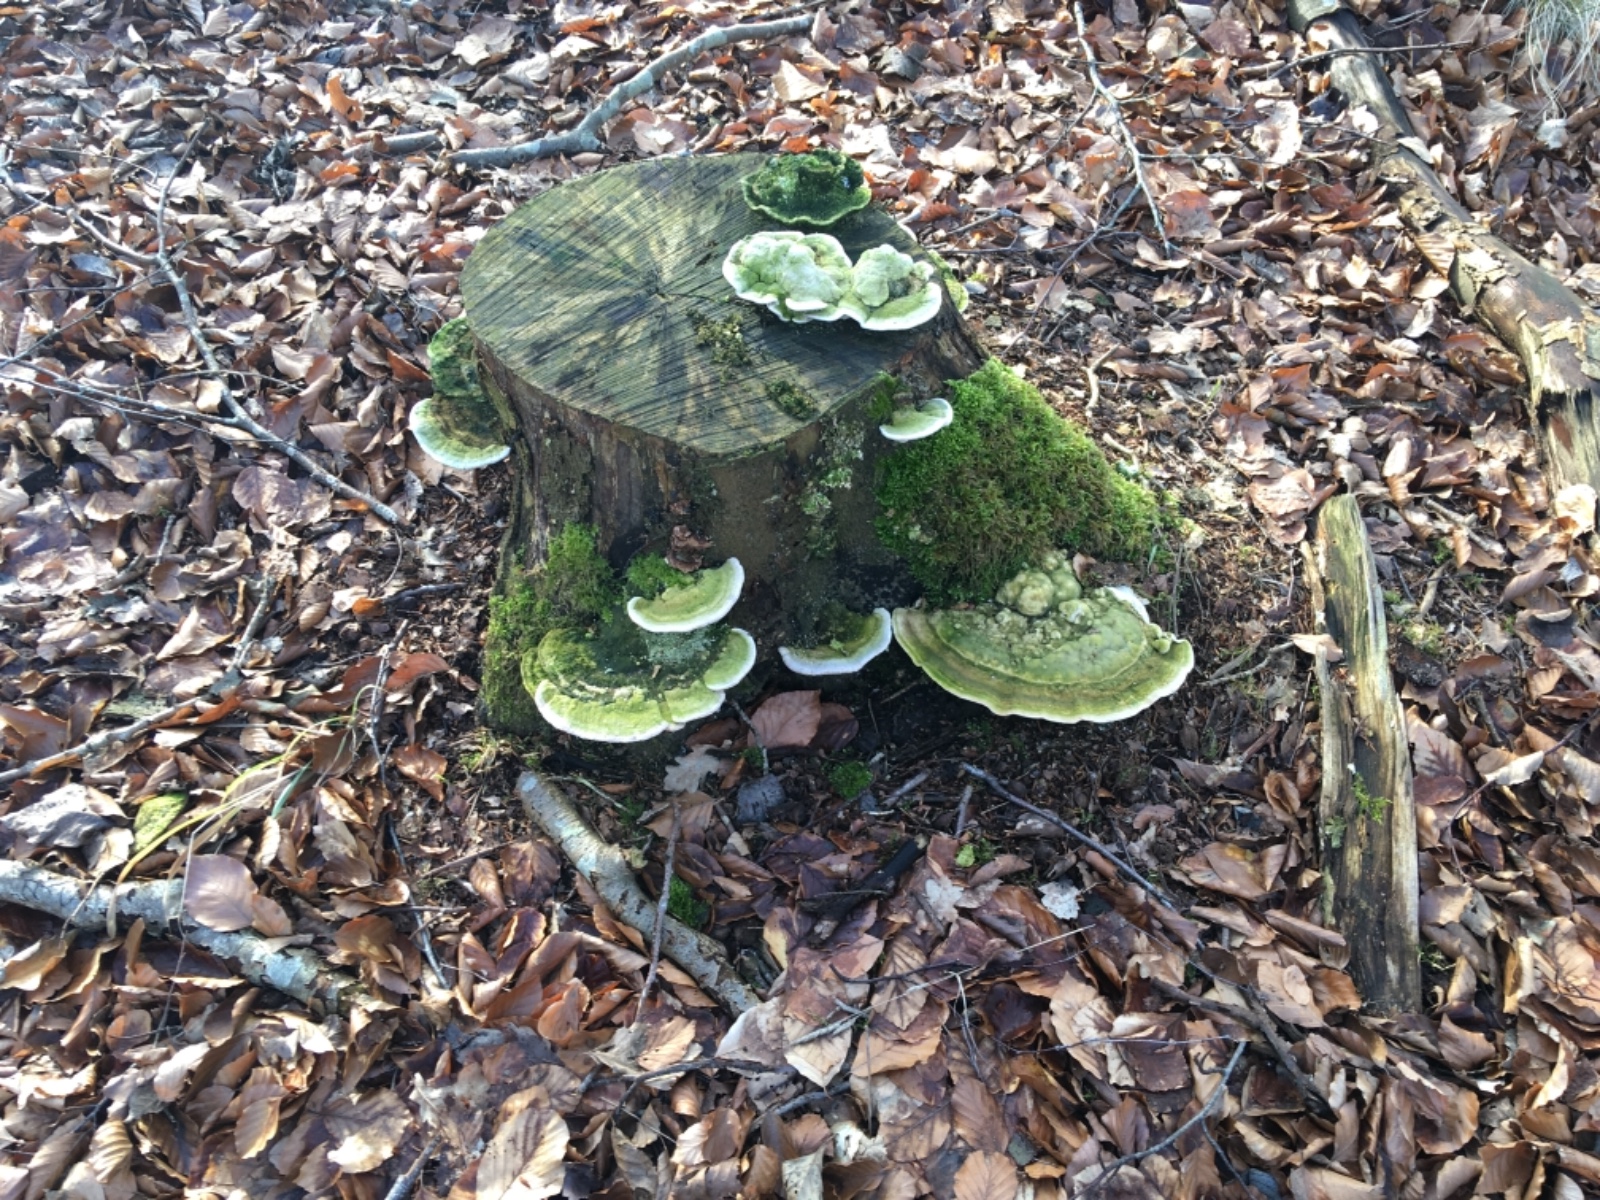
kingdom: Fungi
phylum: Basidiomycota
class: Agaricomycetes
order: Polyporales
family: Polyporaceae
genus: Trametes
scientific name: Trametes gibbosa
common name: puklet læderporesvamp
